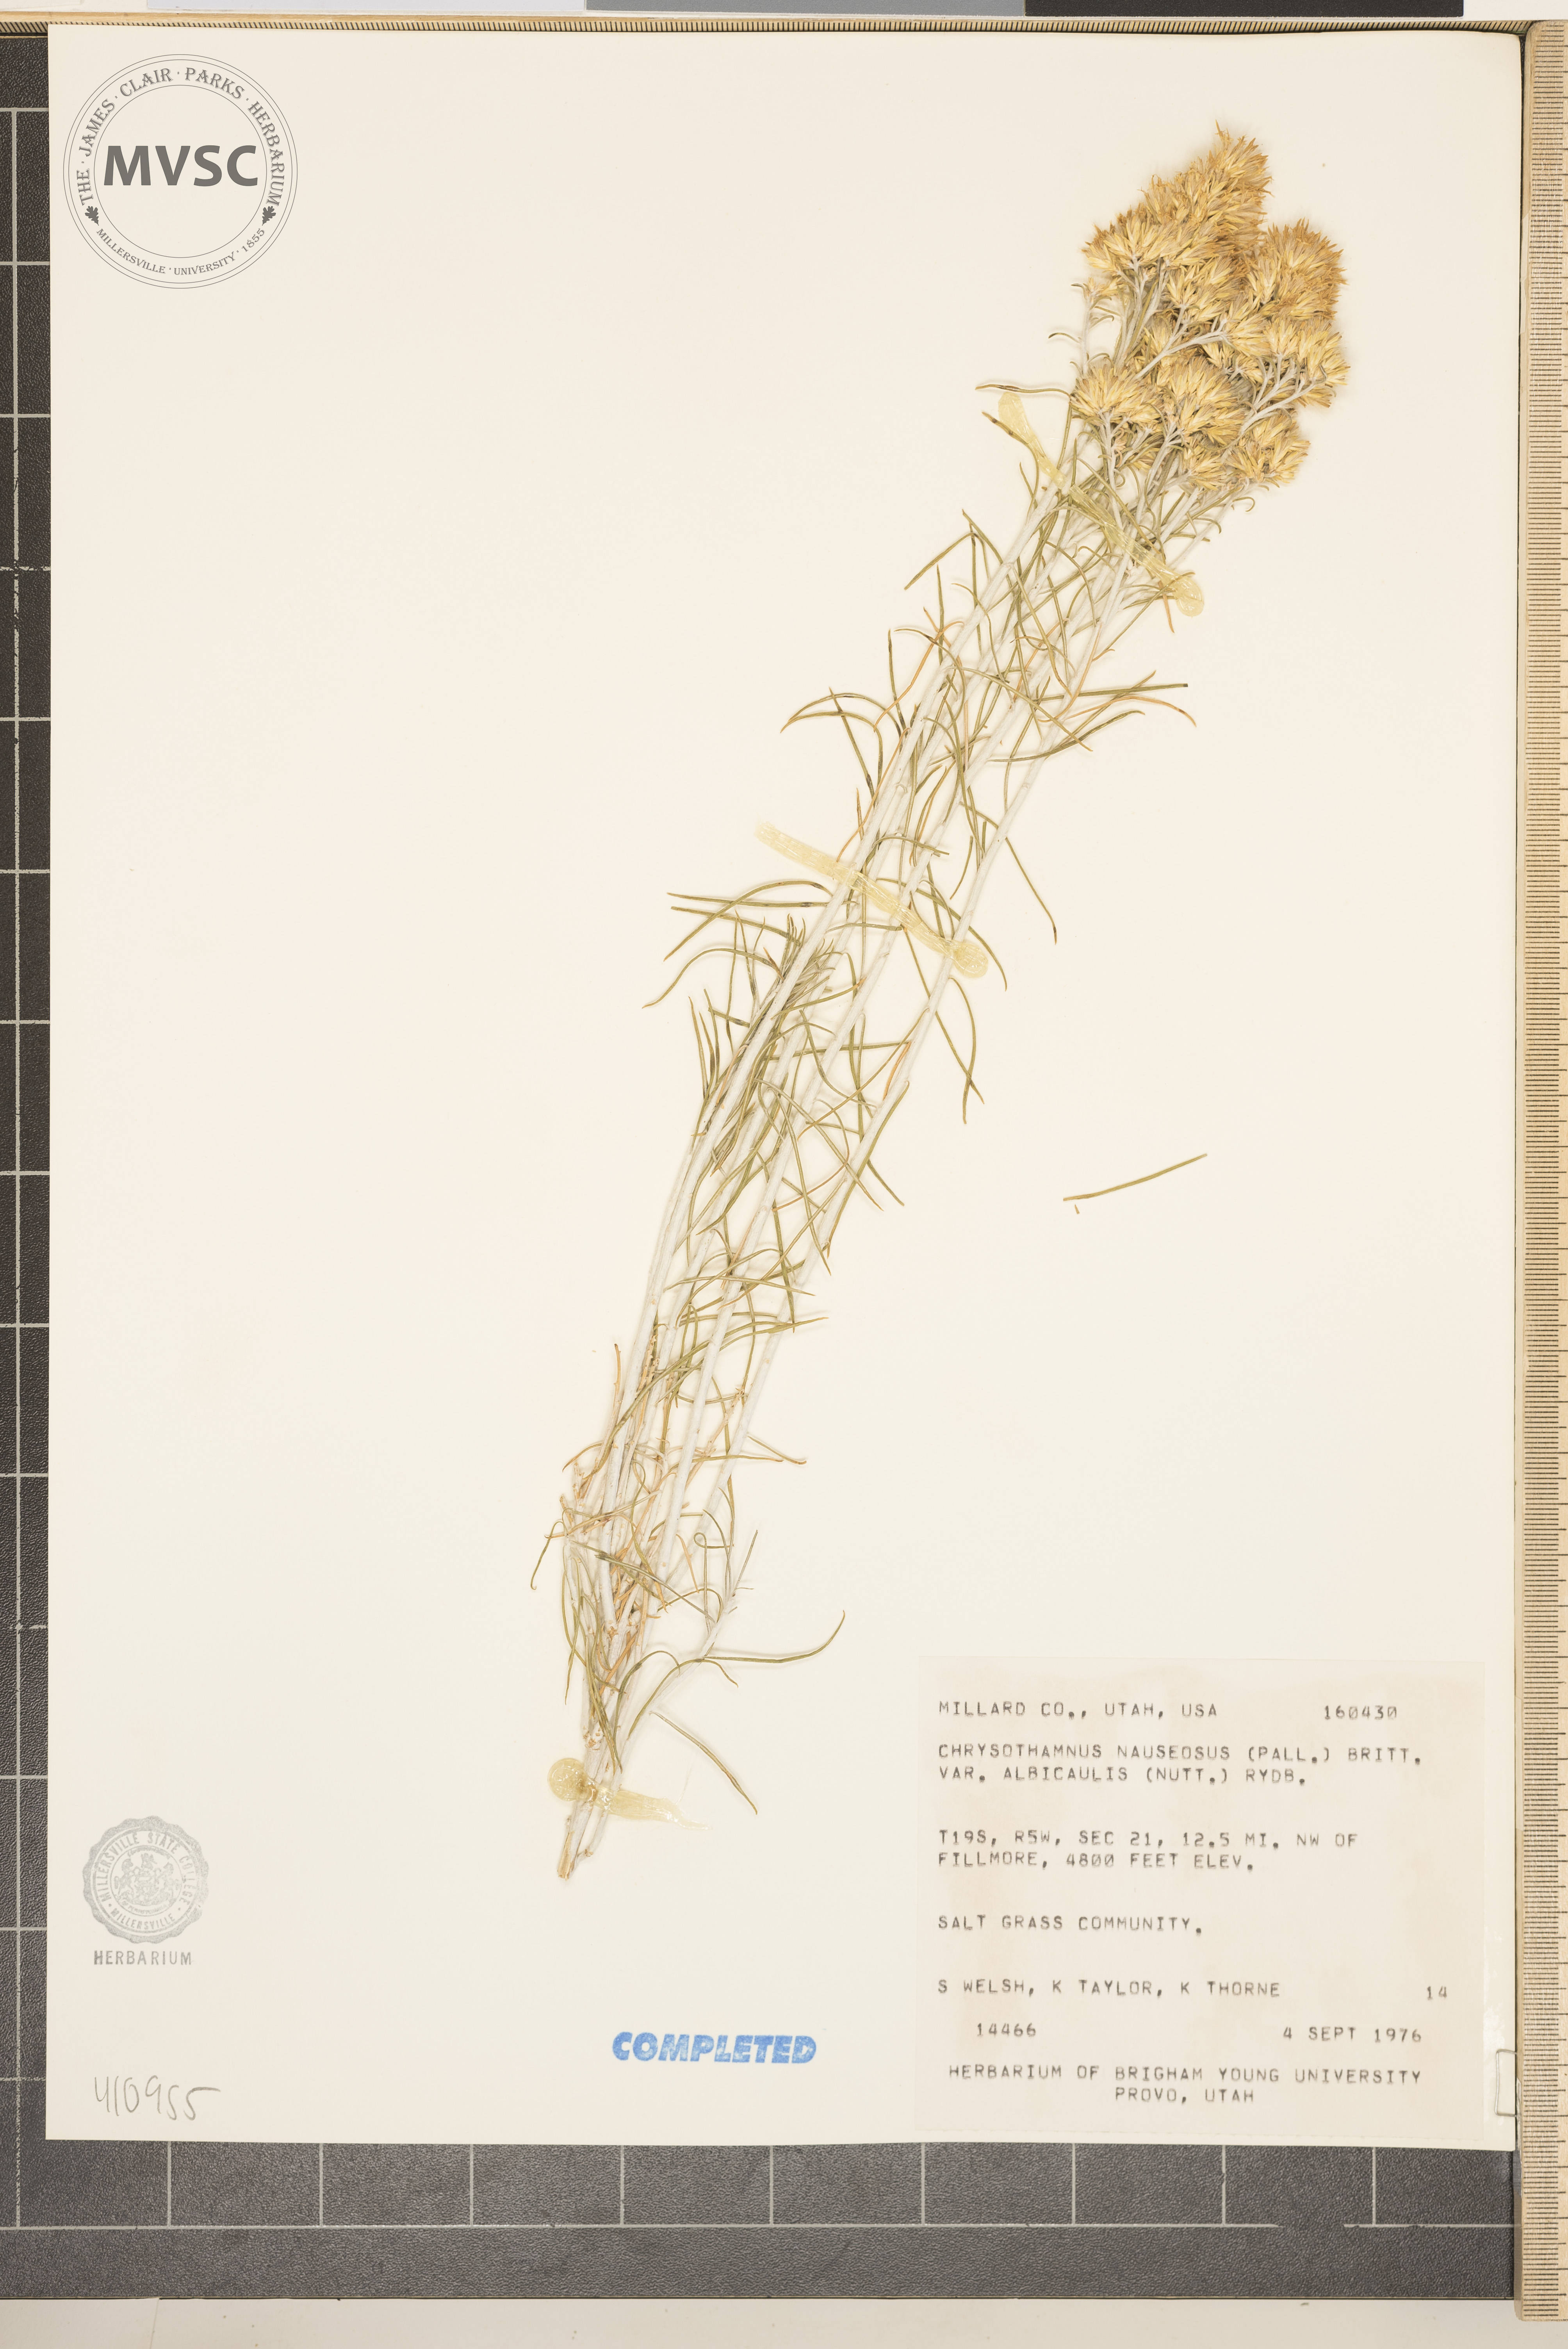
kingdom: Plantae
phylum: Tracheophyta
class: Magnoliopsida
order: Asterales
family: Asteraceae
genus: Ericameria
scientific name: Ericameria nauseosa
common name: Rubber rabbitbrush
